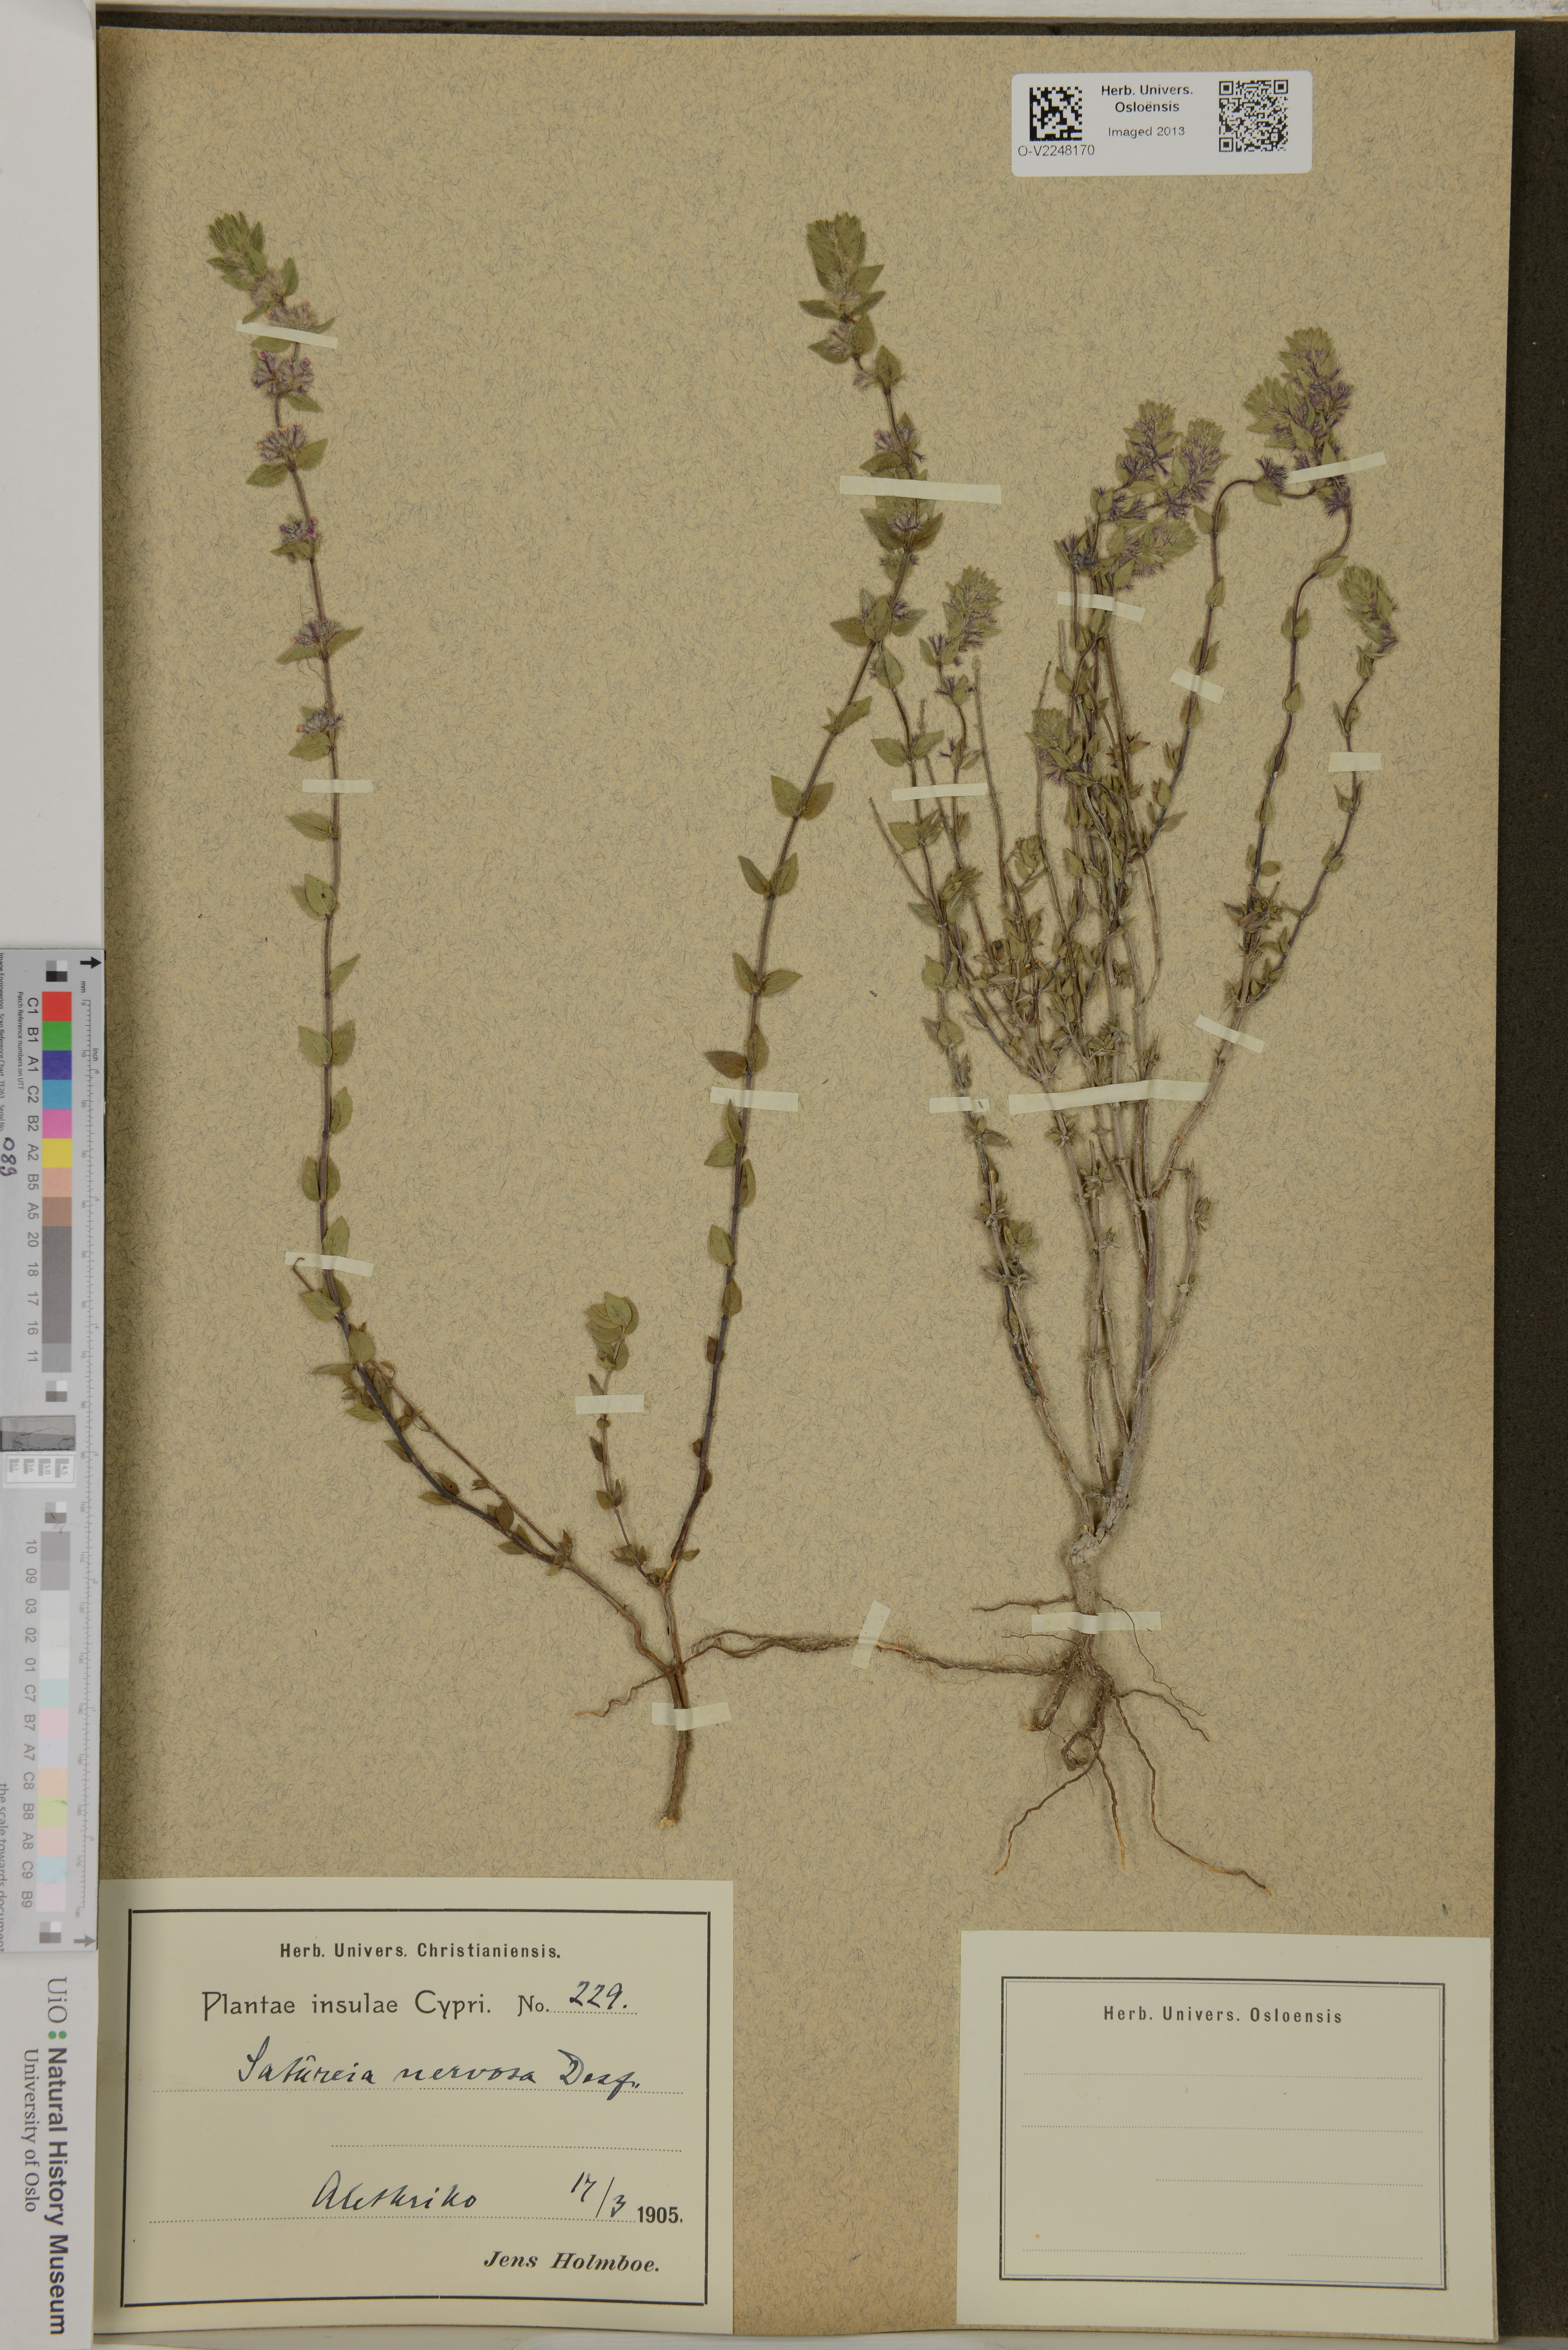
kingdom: Plantae
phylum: Tracheophyta
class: Magnoliopsida
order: Lamiales
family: Lamiaceae
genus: Micromeria
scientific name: Micromeria nervosa
